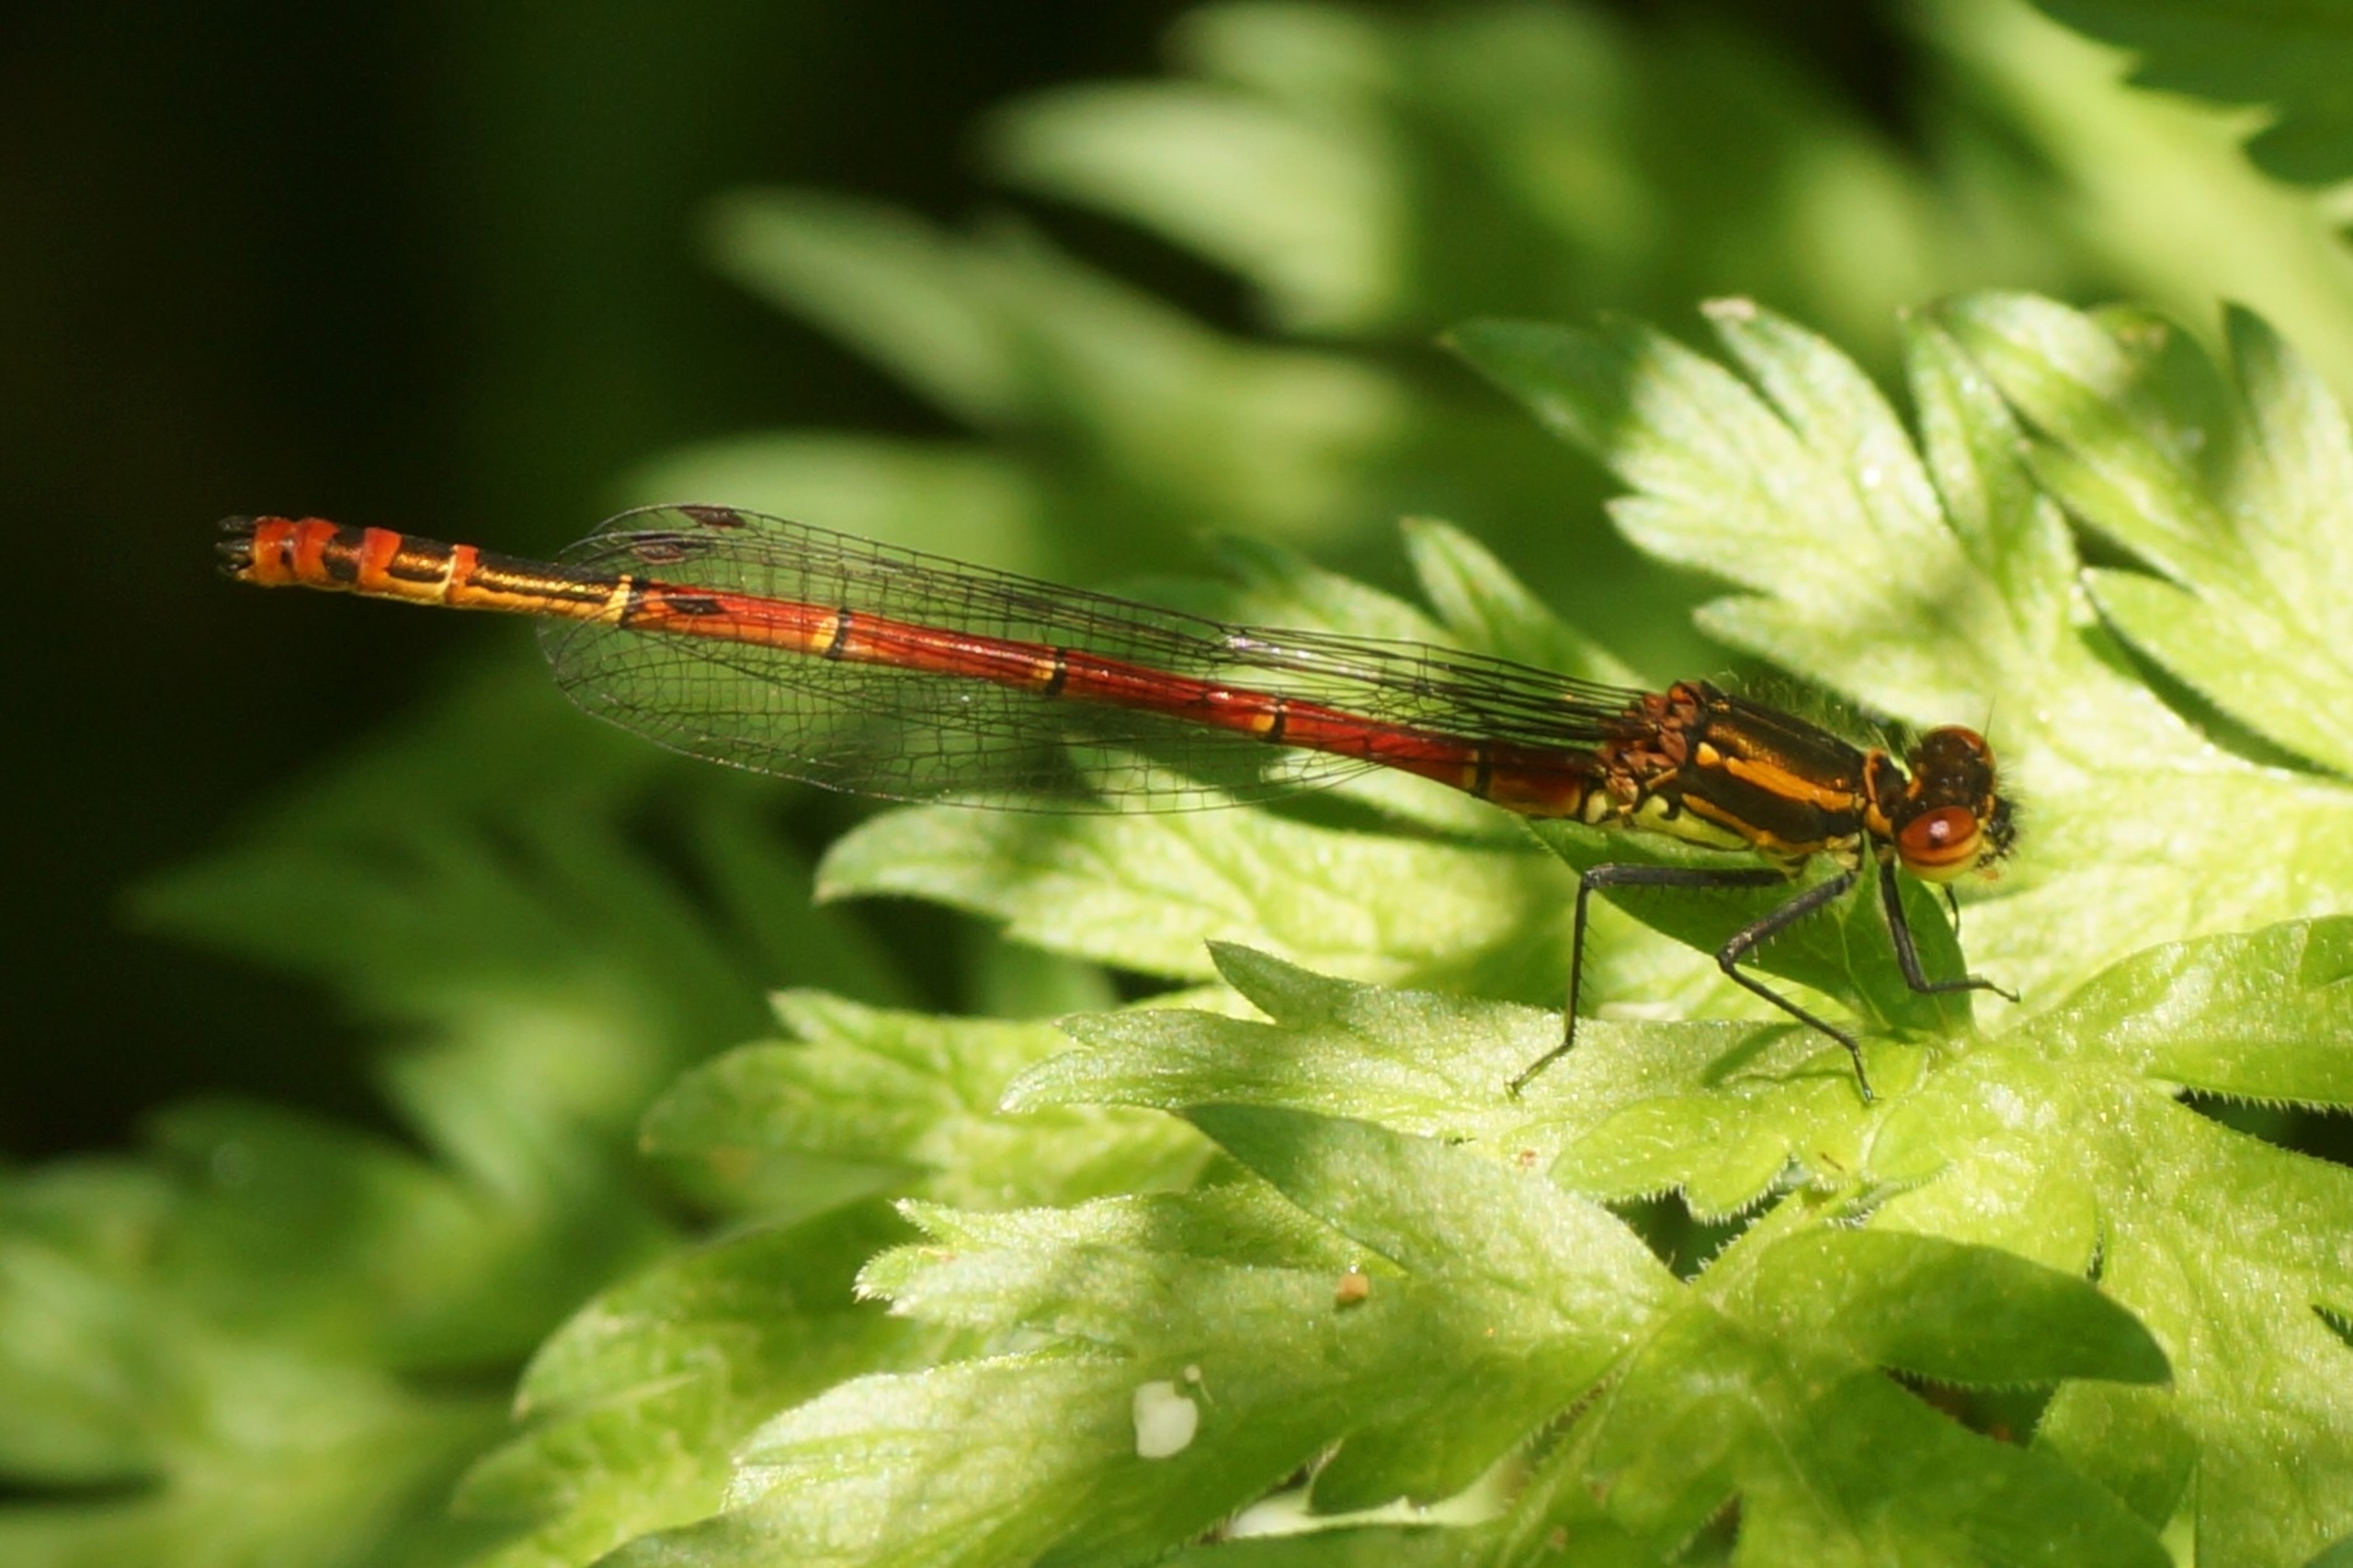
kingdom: Animalia
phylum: Arthropoda
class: Insecta
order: Odonata
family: Coenagrionidae
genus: Pyrrhosoma
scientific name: Pyrrhosoma nymphula
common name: Rød vandnymfe
